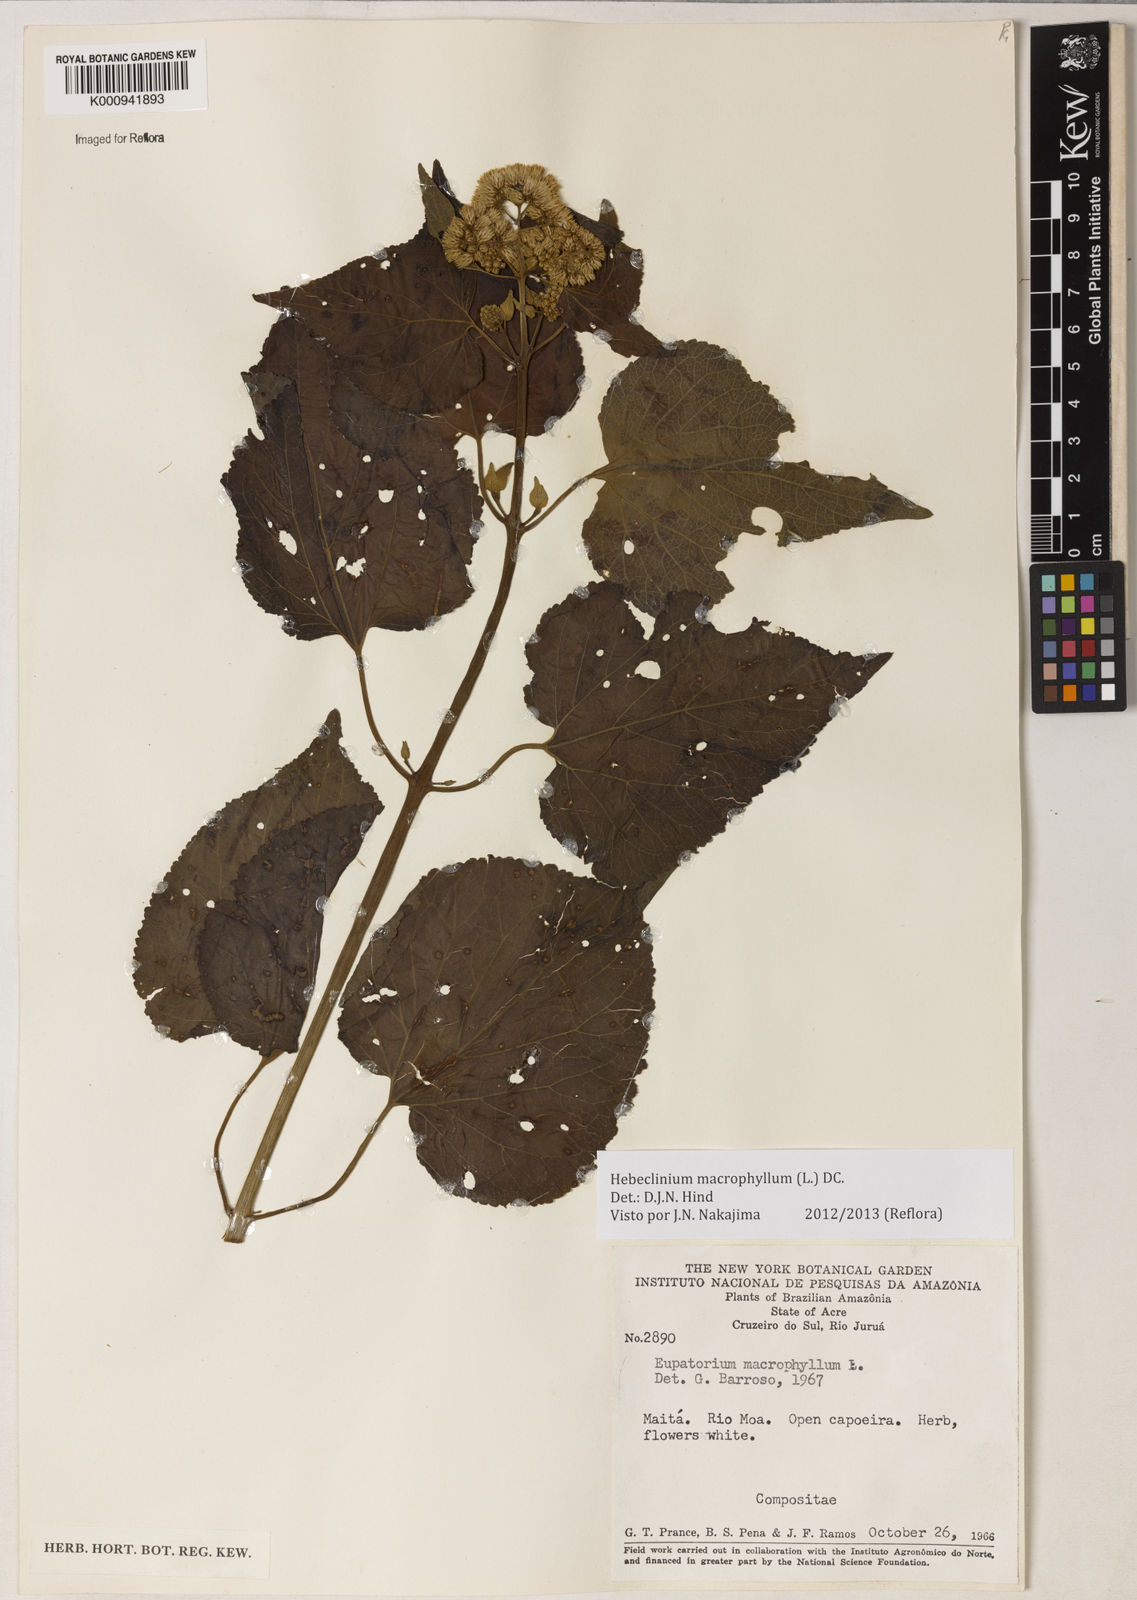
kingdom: Plantae
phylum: Tracheophyta
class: Magnoliopsida
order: Asterales
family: Asteraceae
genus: Hebeclinium
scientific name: Hebeclinium macrophyllum
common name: Largeleaf thoroughwort
